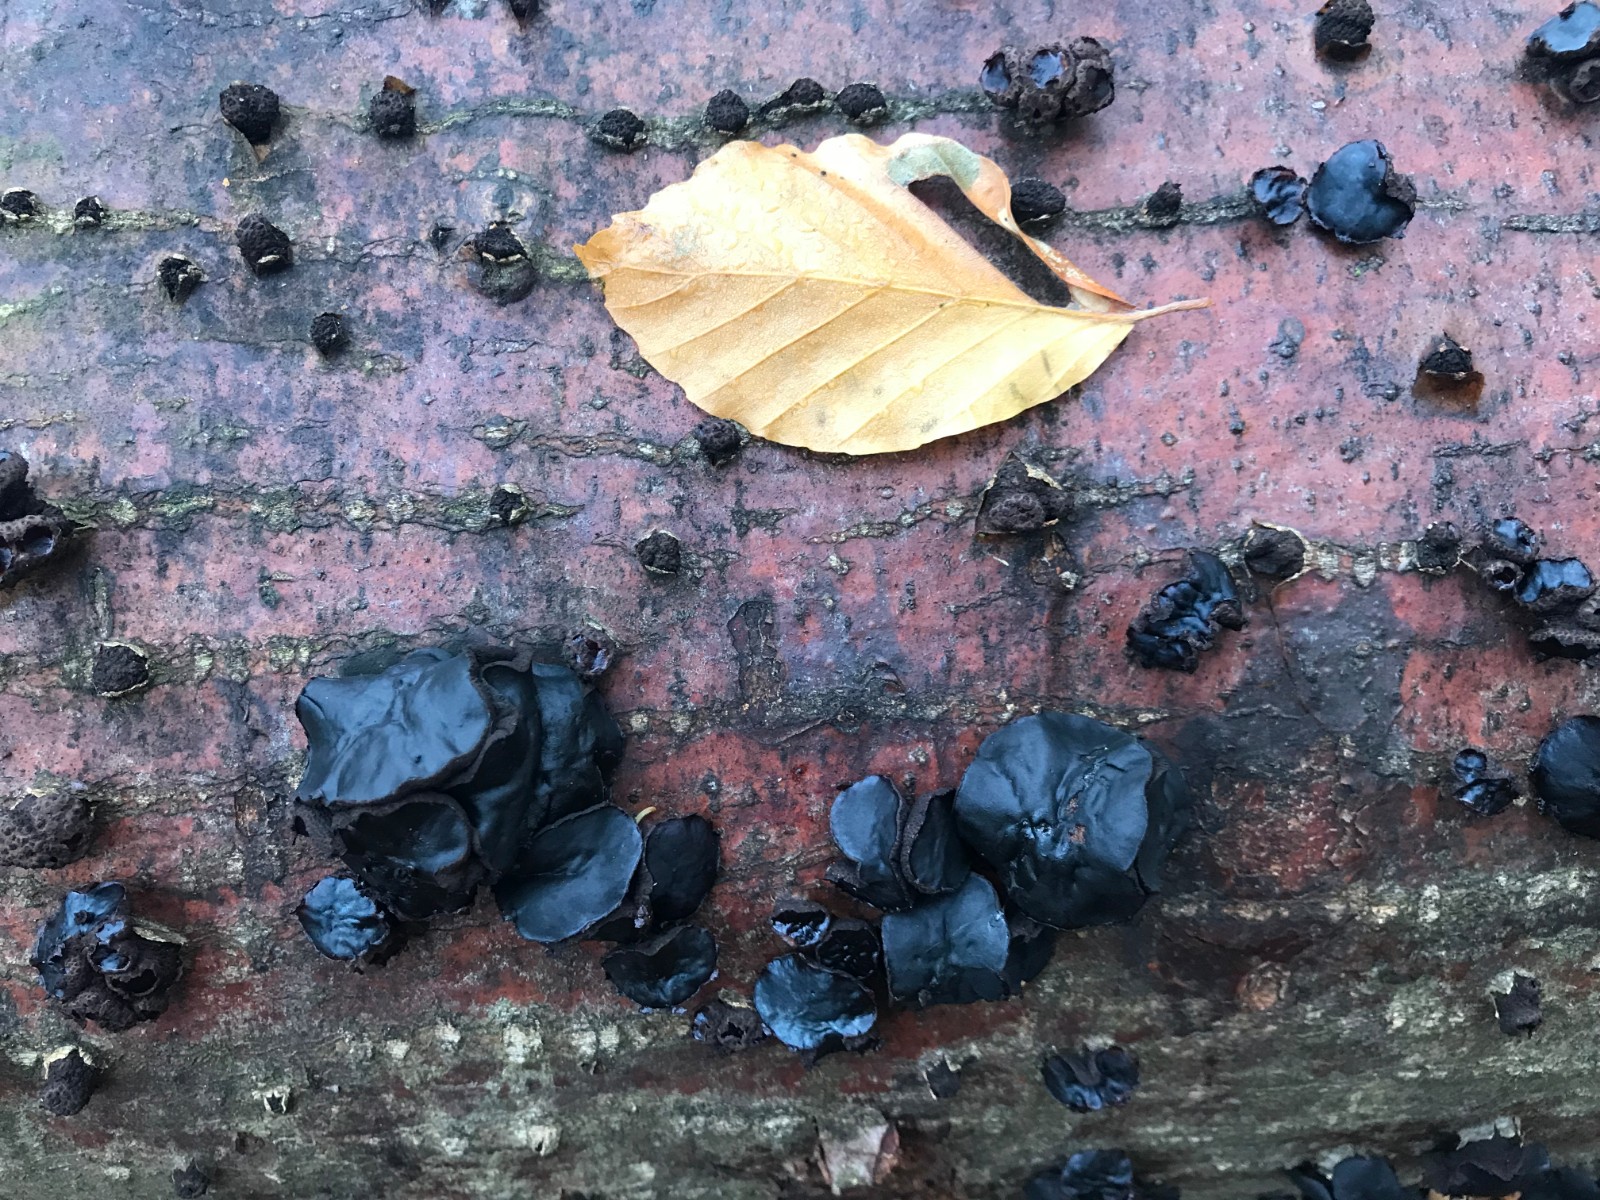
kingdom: Fungi
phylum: Ascomycota
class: Leotiomycetes
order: Phacidiales
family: Phacidiaceae
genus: Bulgaria
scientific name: Bulgaria inquinans
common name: afsmittende topsvamp
